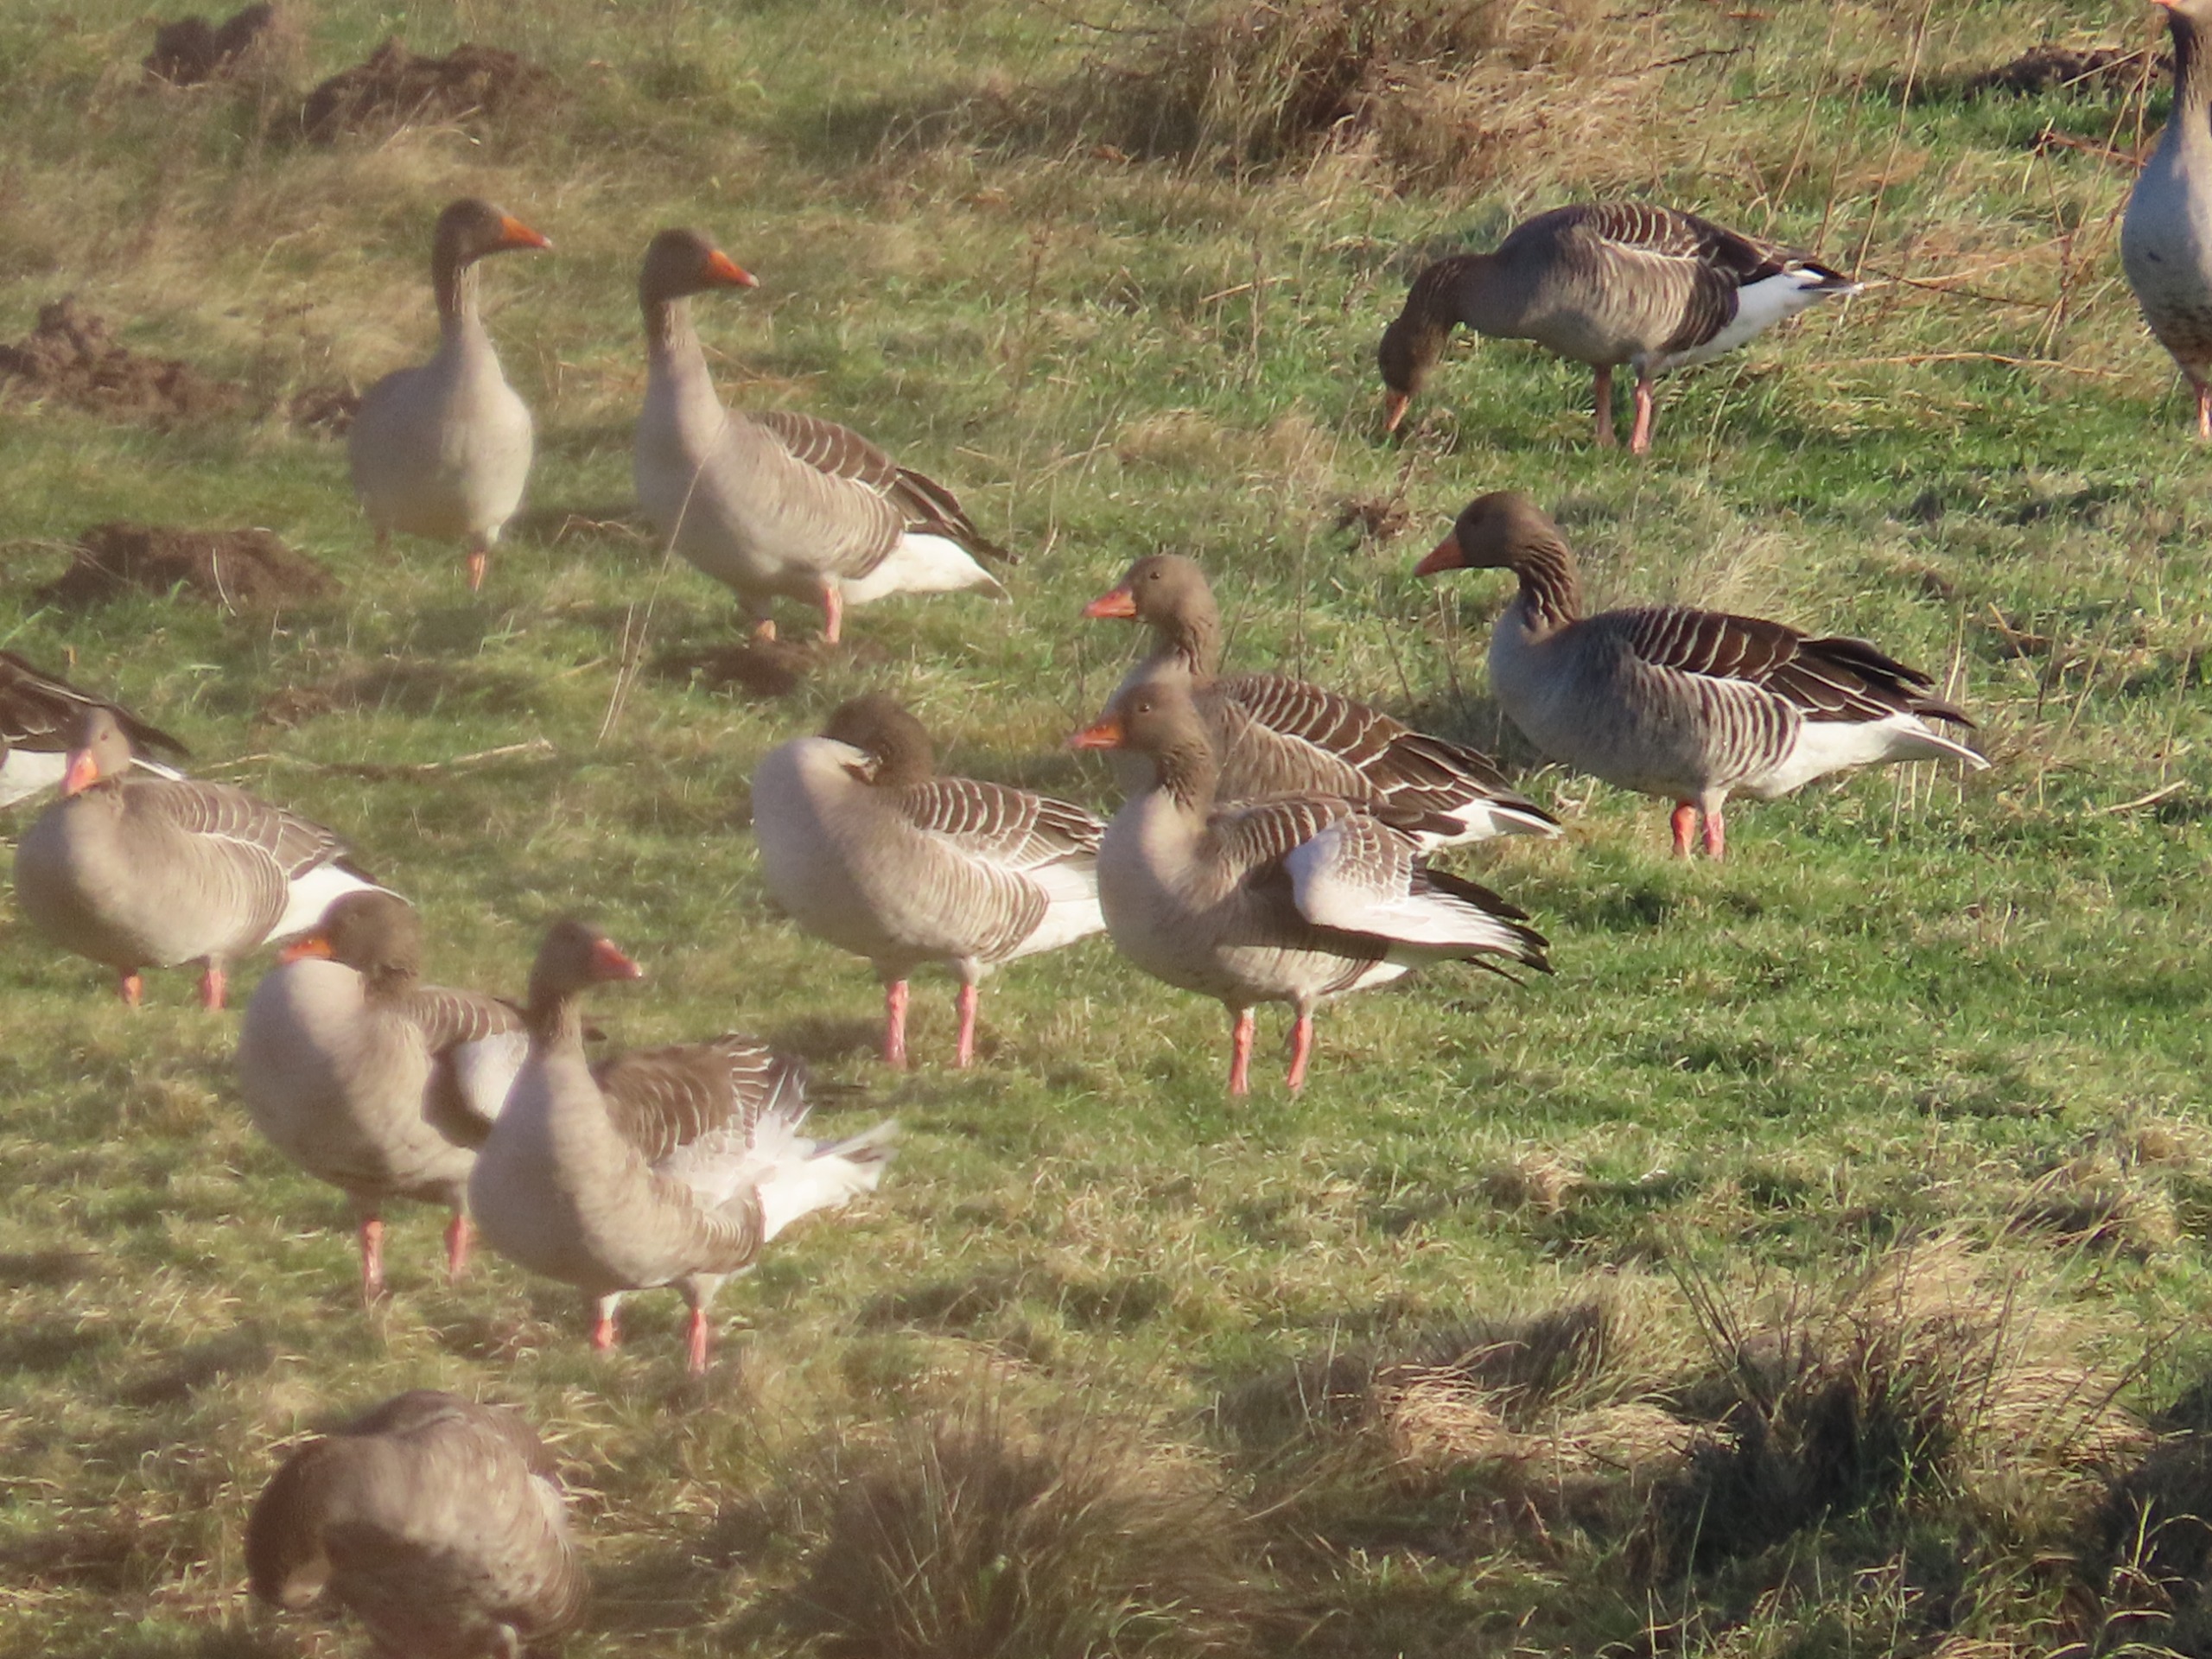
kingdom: Animalia
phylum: Chordata
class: Aves
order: Anseriformes
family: Anatidae
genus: Anser
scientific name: Anser anser
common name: Grågås
